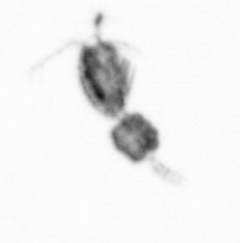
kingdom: Animalia
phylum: Arthropoda
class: Copepoda
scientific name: Copepoda
